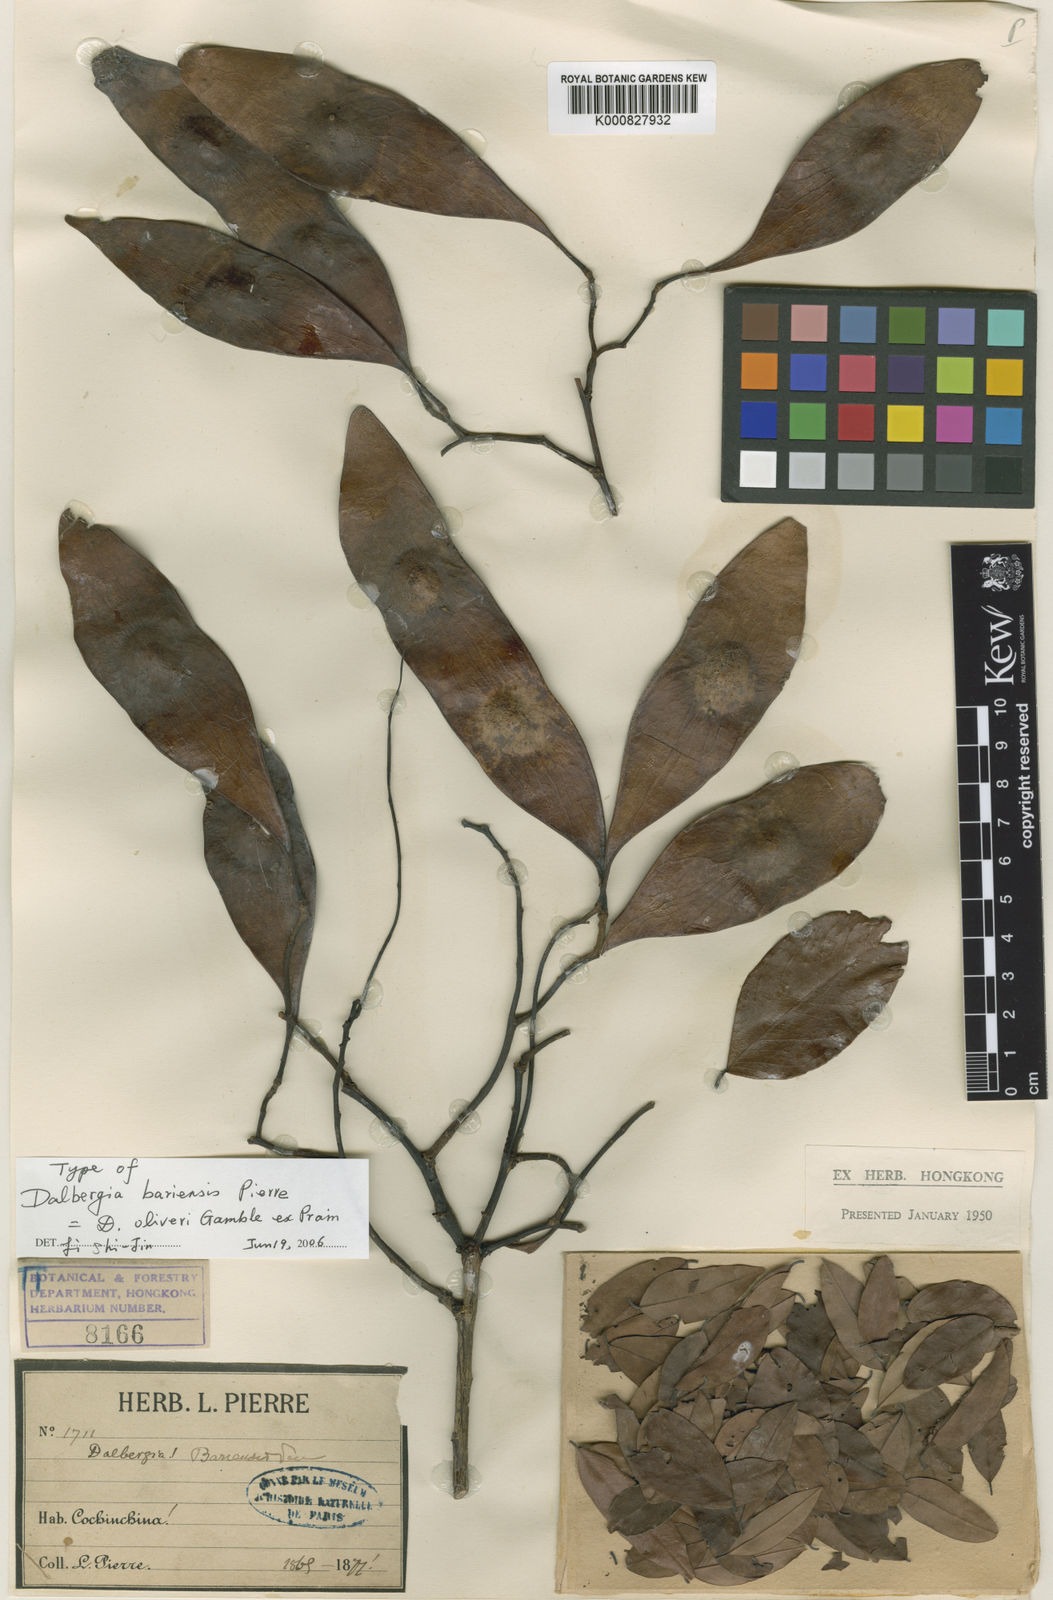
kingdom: Plantae
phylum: Tracheophyta
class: Magnoliopsida
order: Fabales
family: Fabaceae
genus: Dalbergia
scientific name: Dalbergia oliveri
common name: Burmese rosewood
